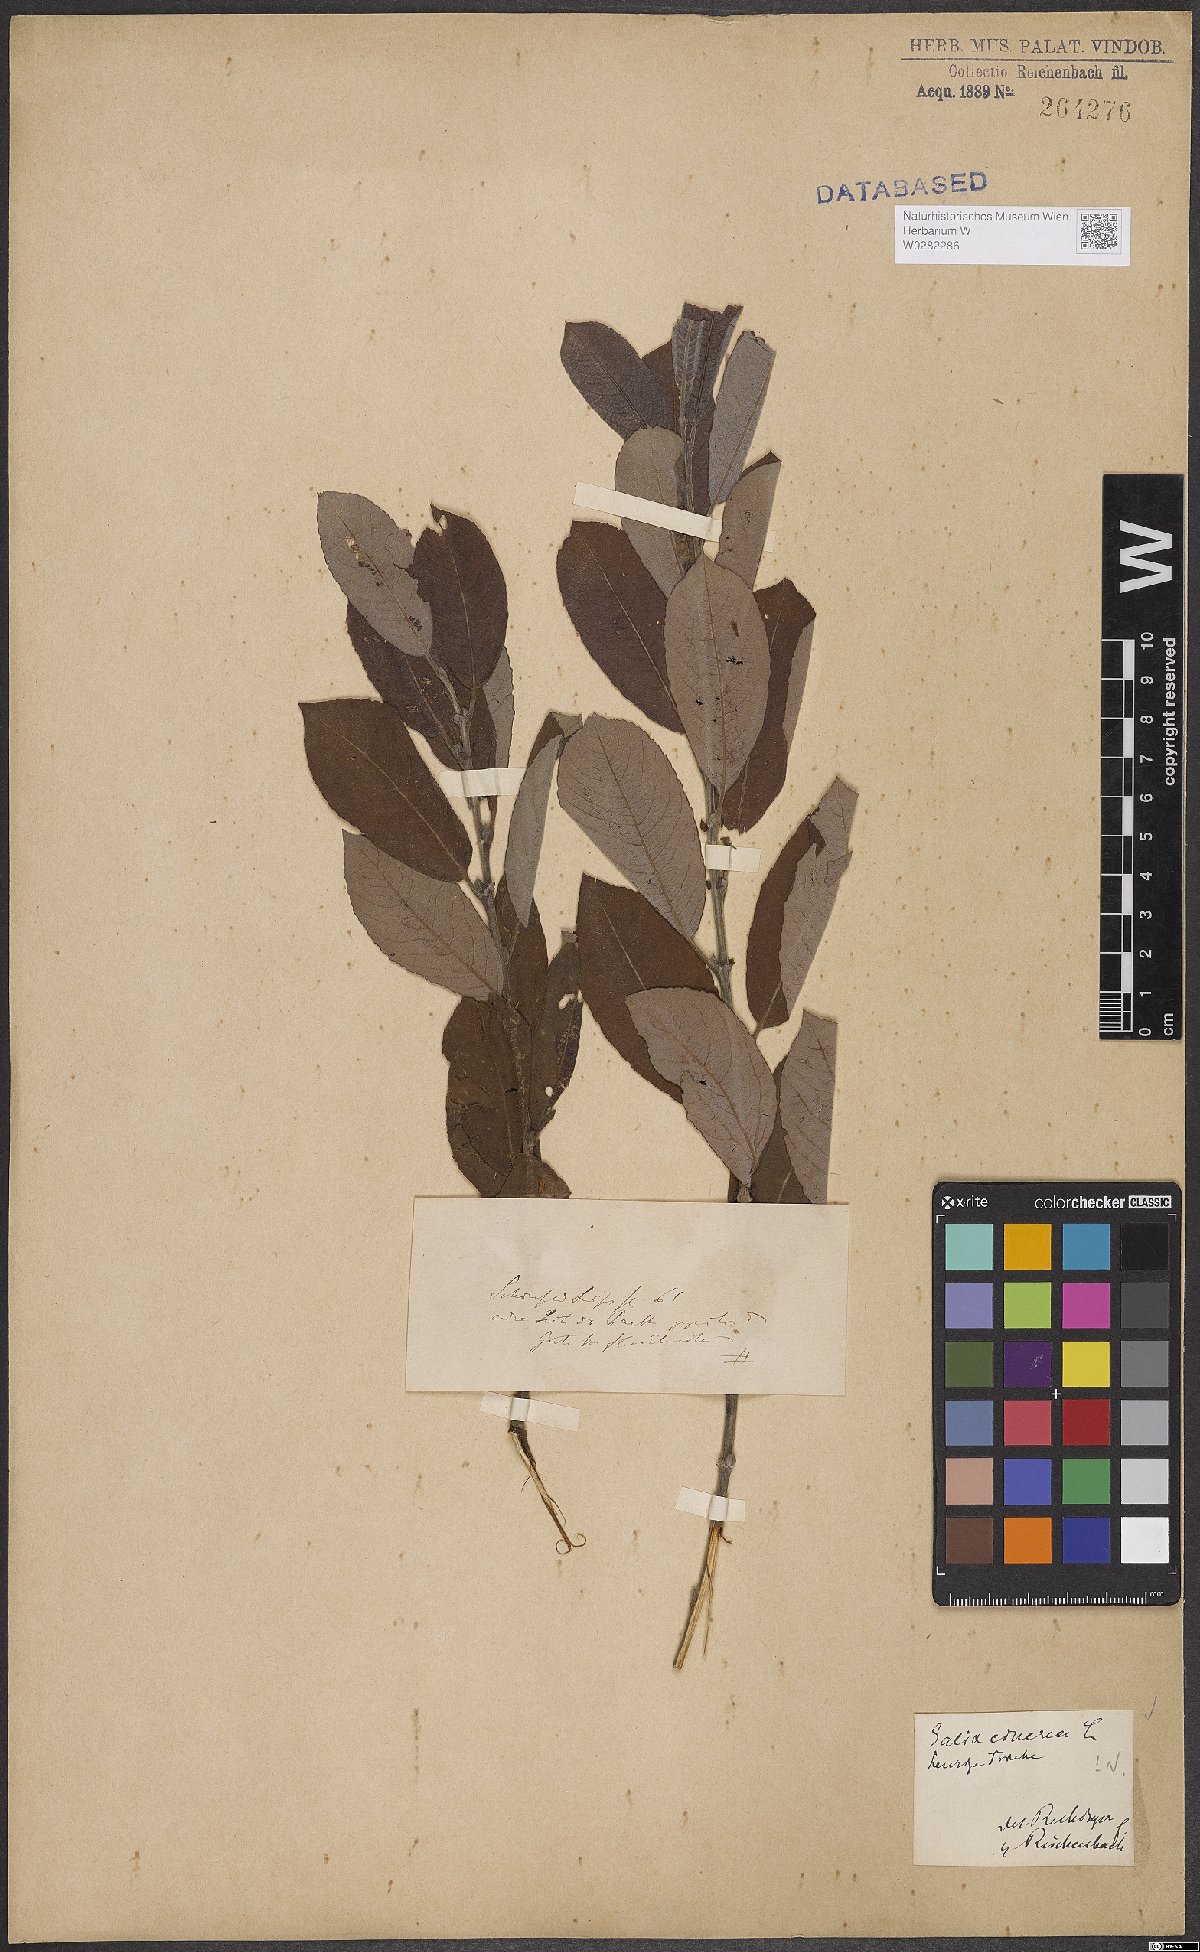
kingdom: Plantae
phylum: Tracheophyta
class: Magnoliopsida
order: Malpighiales
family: Salicaceae
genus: Salix
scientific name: Salix cinerea
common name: Common sallow
